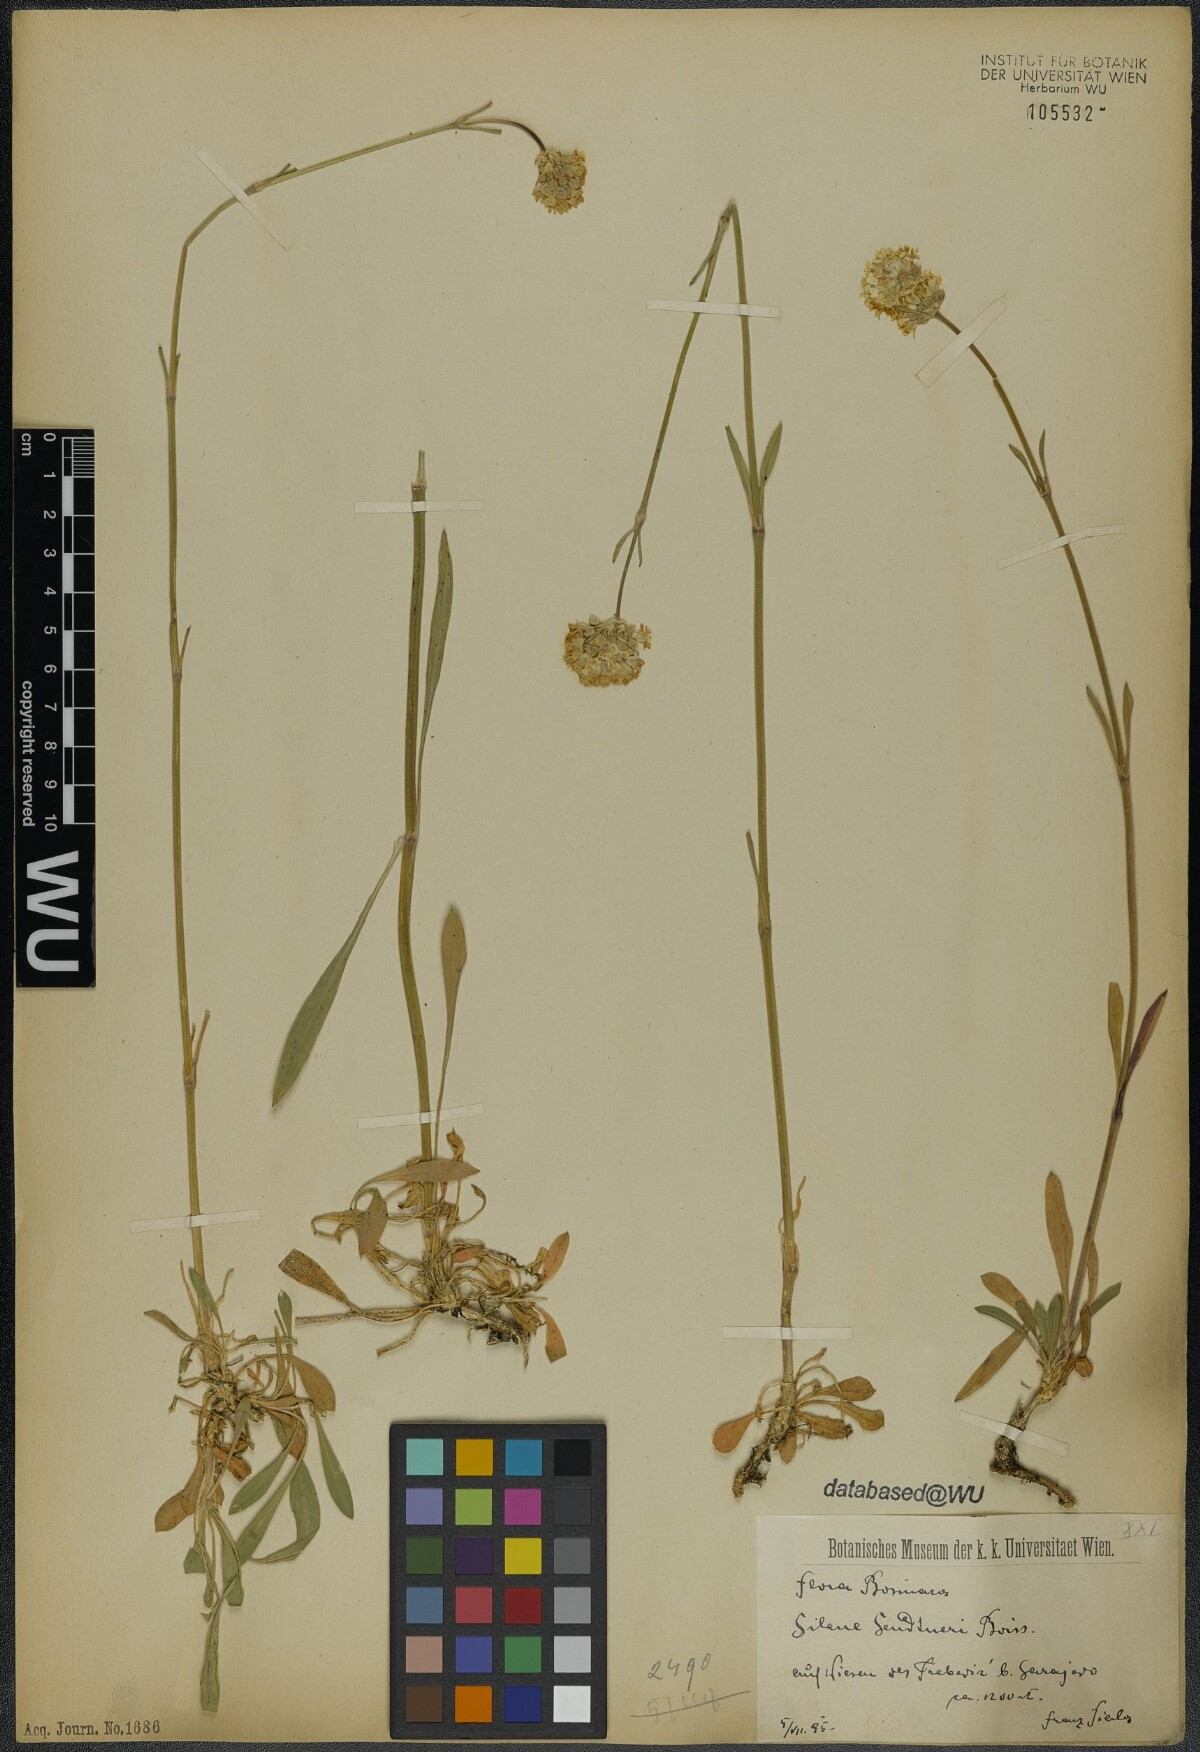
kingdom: Plantae
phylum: Tracheophyta
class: Magnoliopsida
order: Caryophyllales
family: Caryophyllaceae
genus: Silene
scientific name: Silene sendtneri
